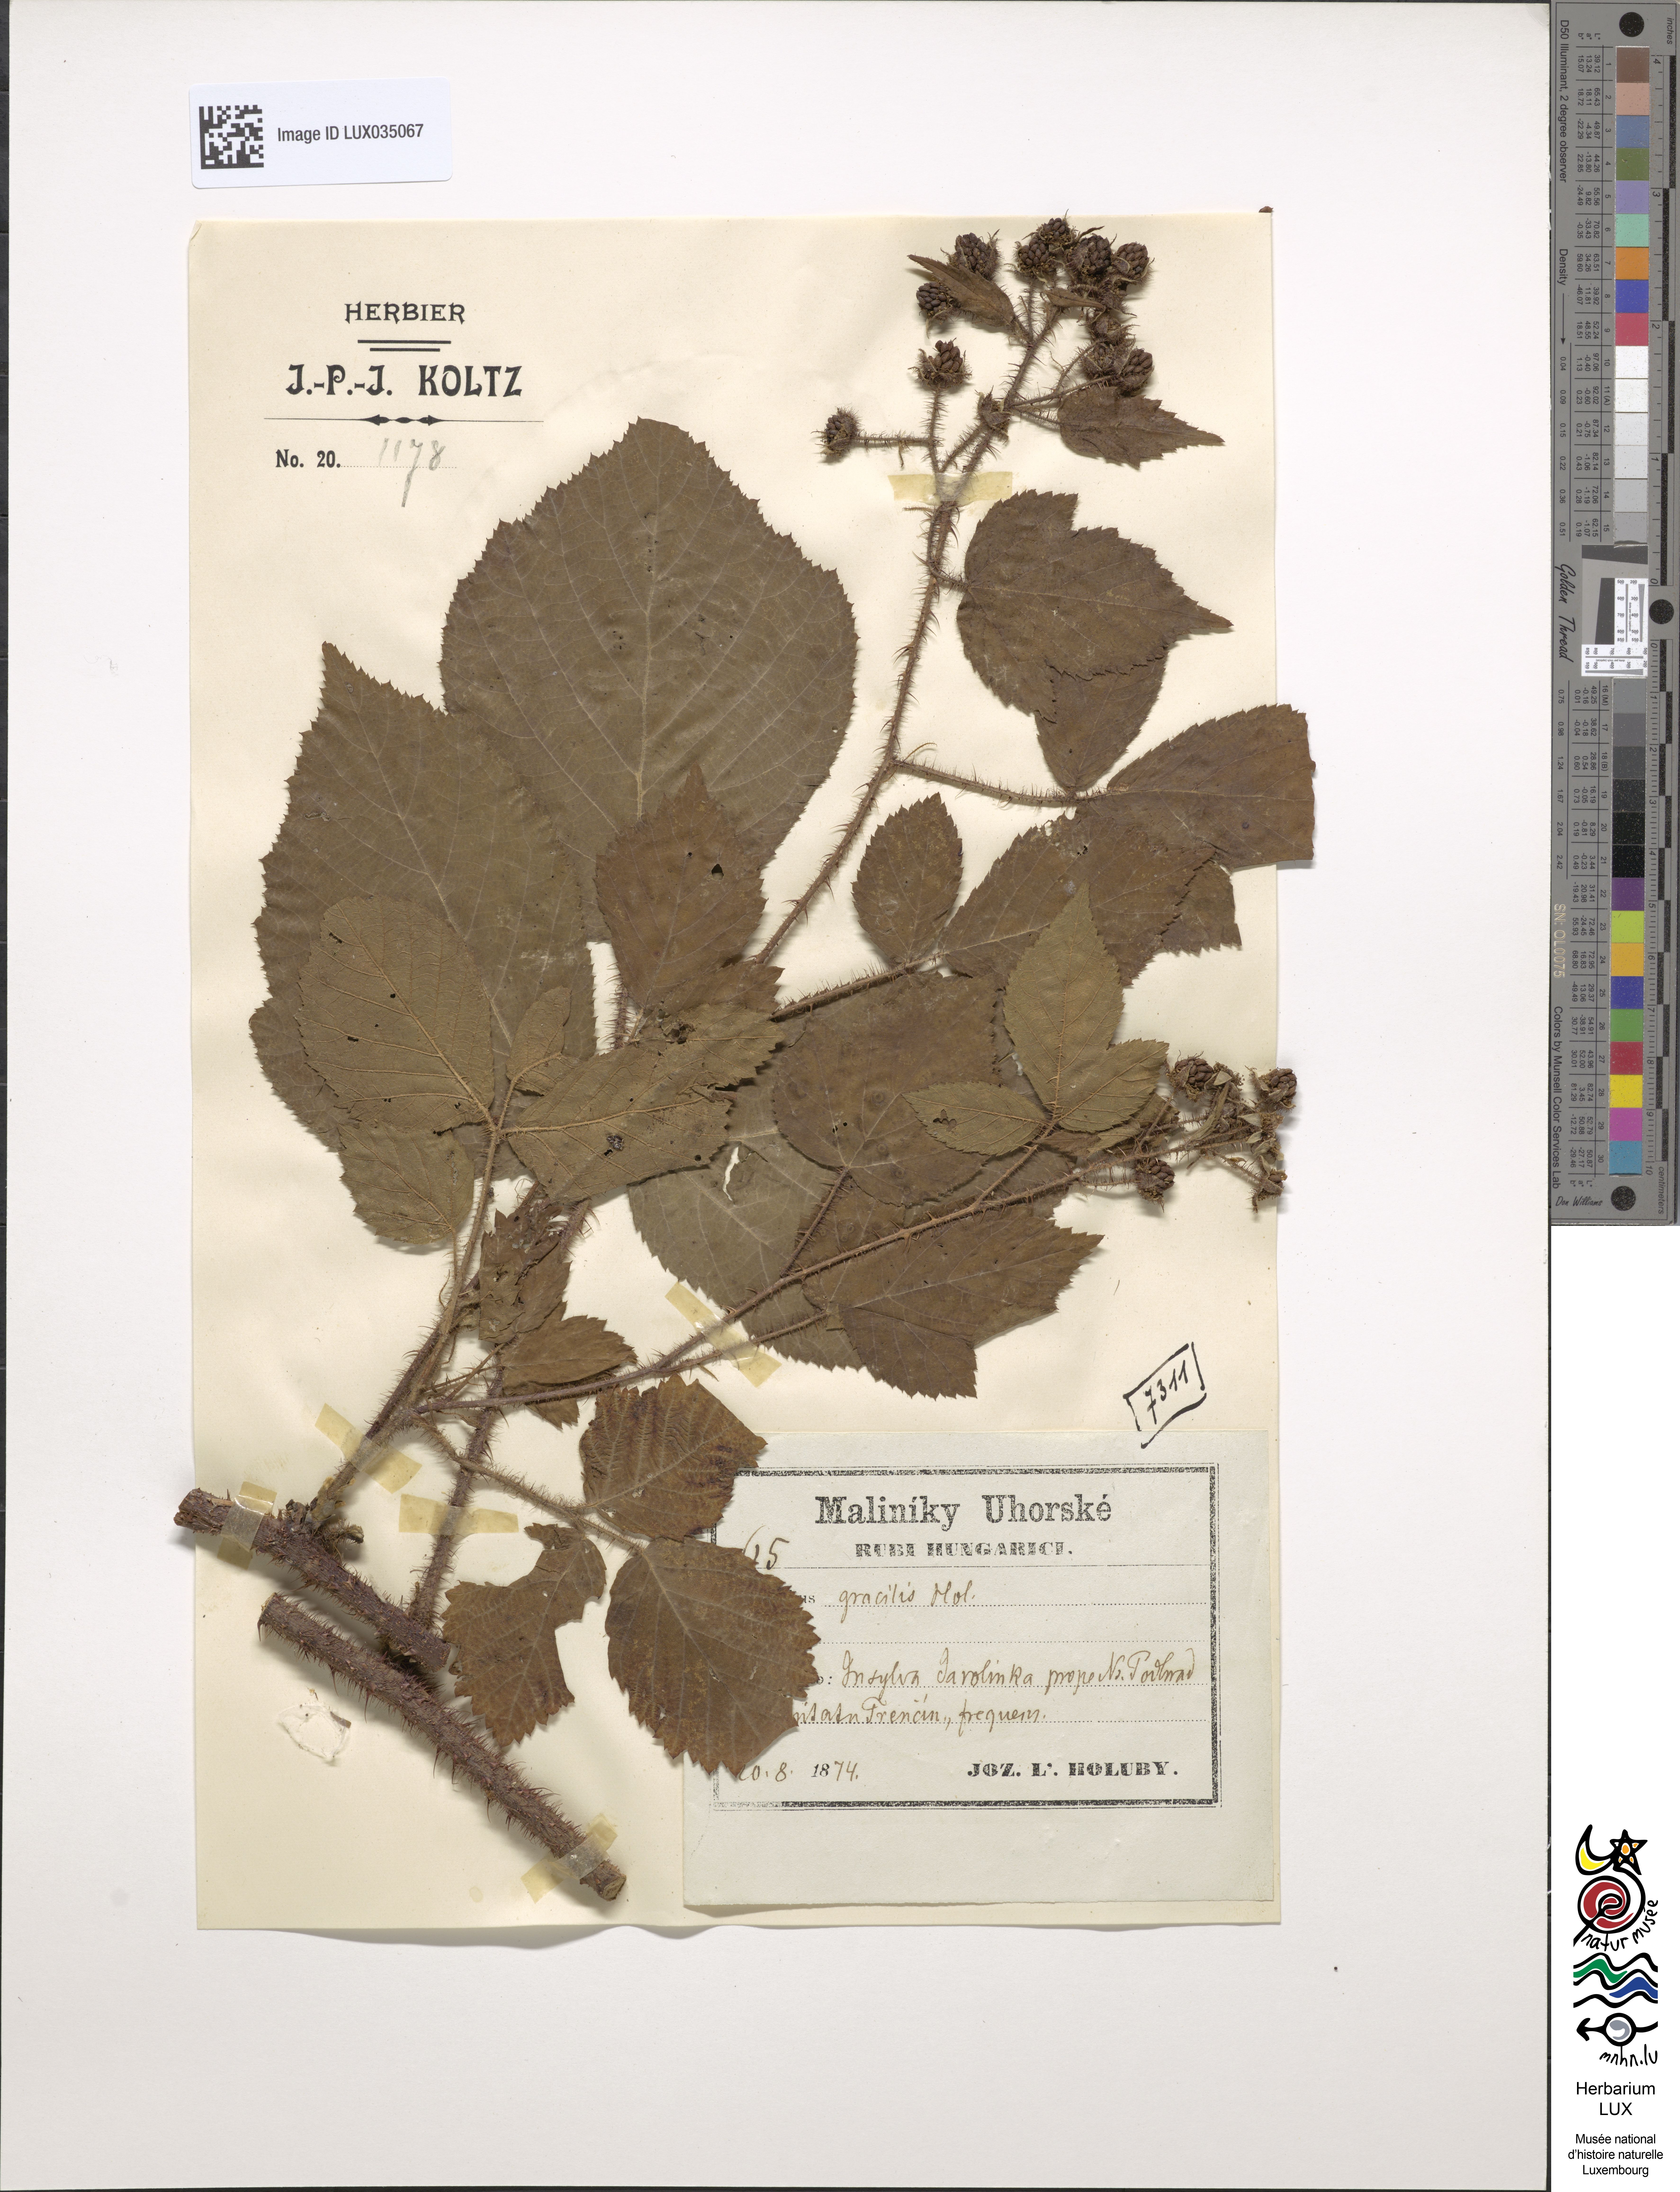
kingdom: Plantae
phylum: Tracheophyta
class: Magnoliopsida
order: Rosales
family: Rosaceae
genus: Rubus
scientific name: Rubus gracilis
